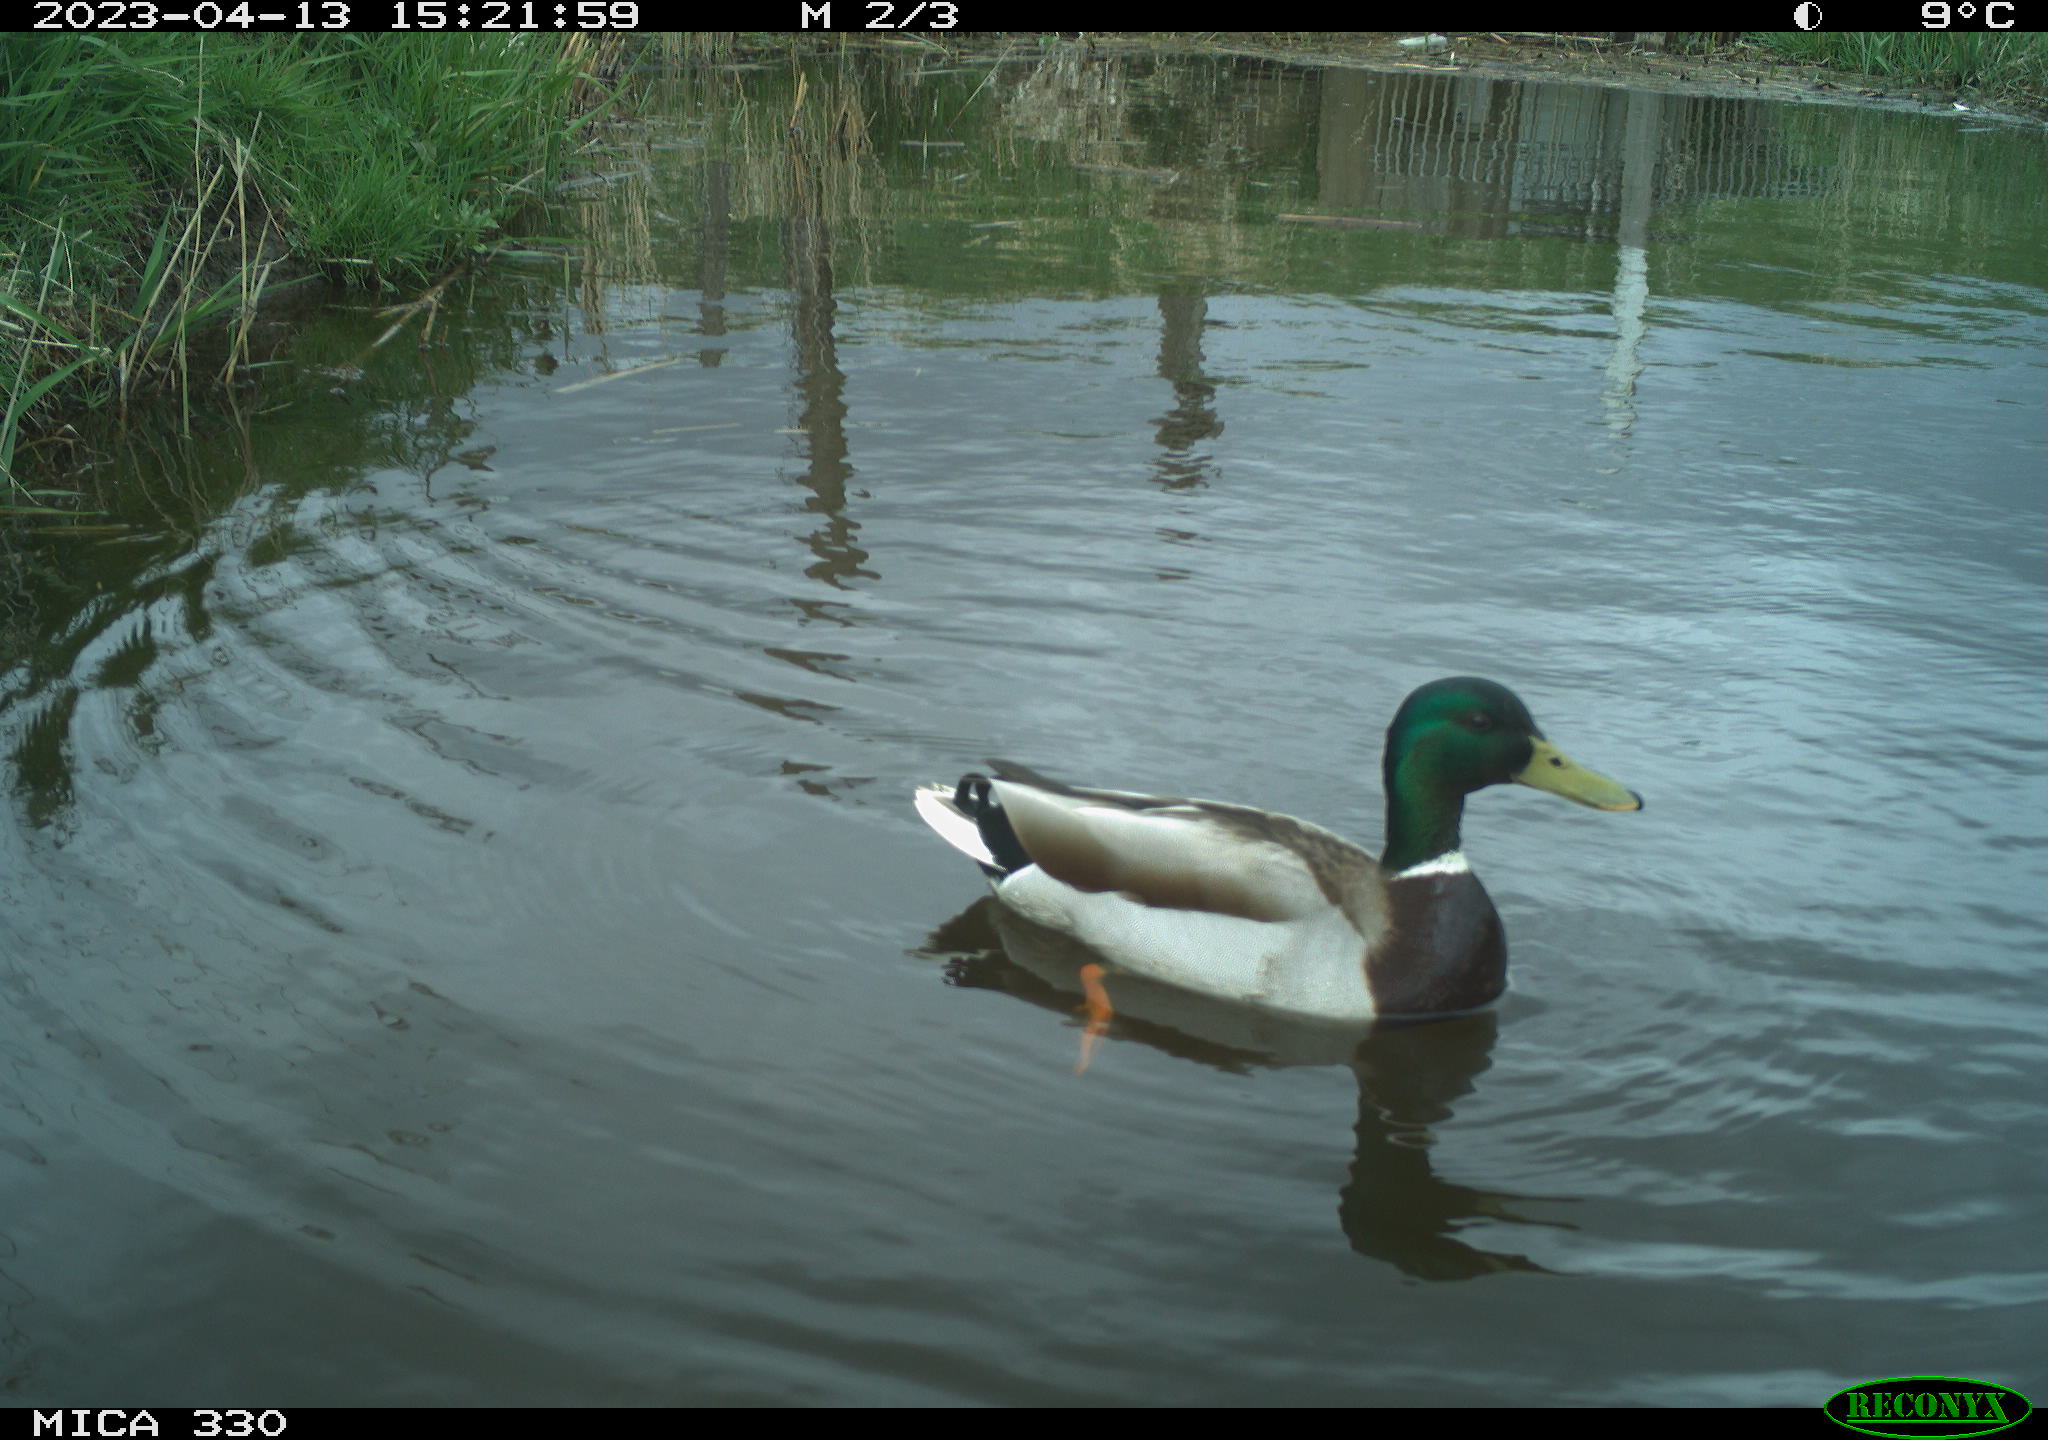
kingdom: Animalia
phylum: Chordata
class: Aves
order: Anseriformes
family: Anatidae
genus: Anas
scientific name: Anas
